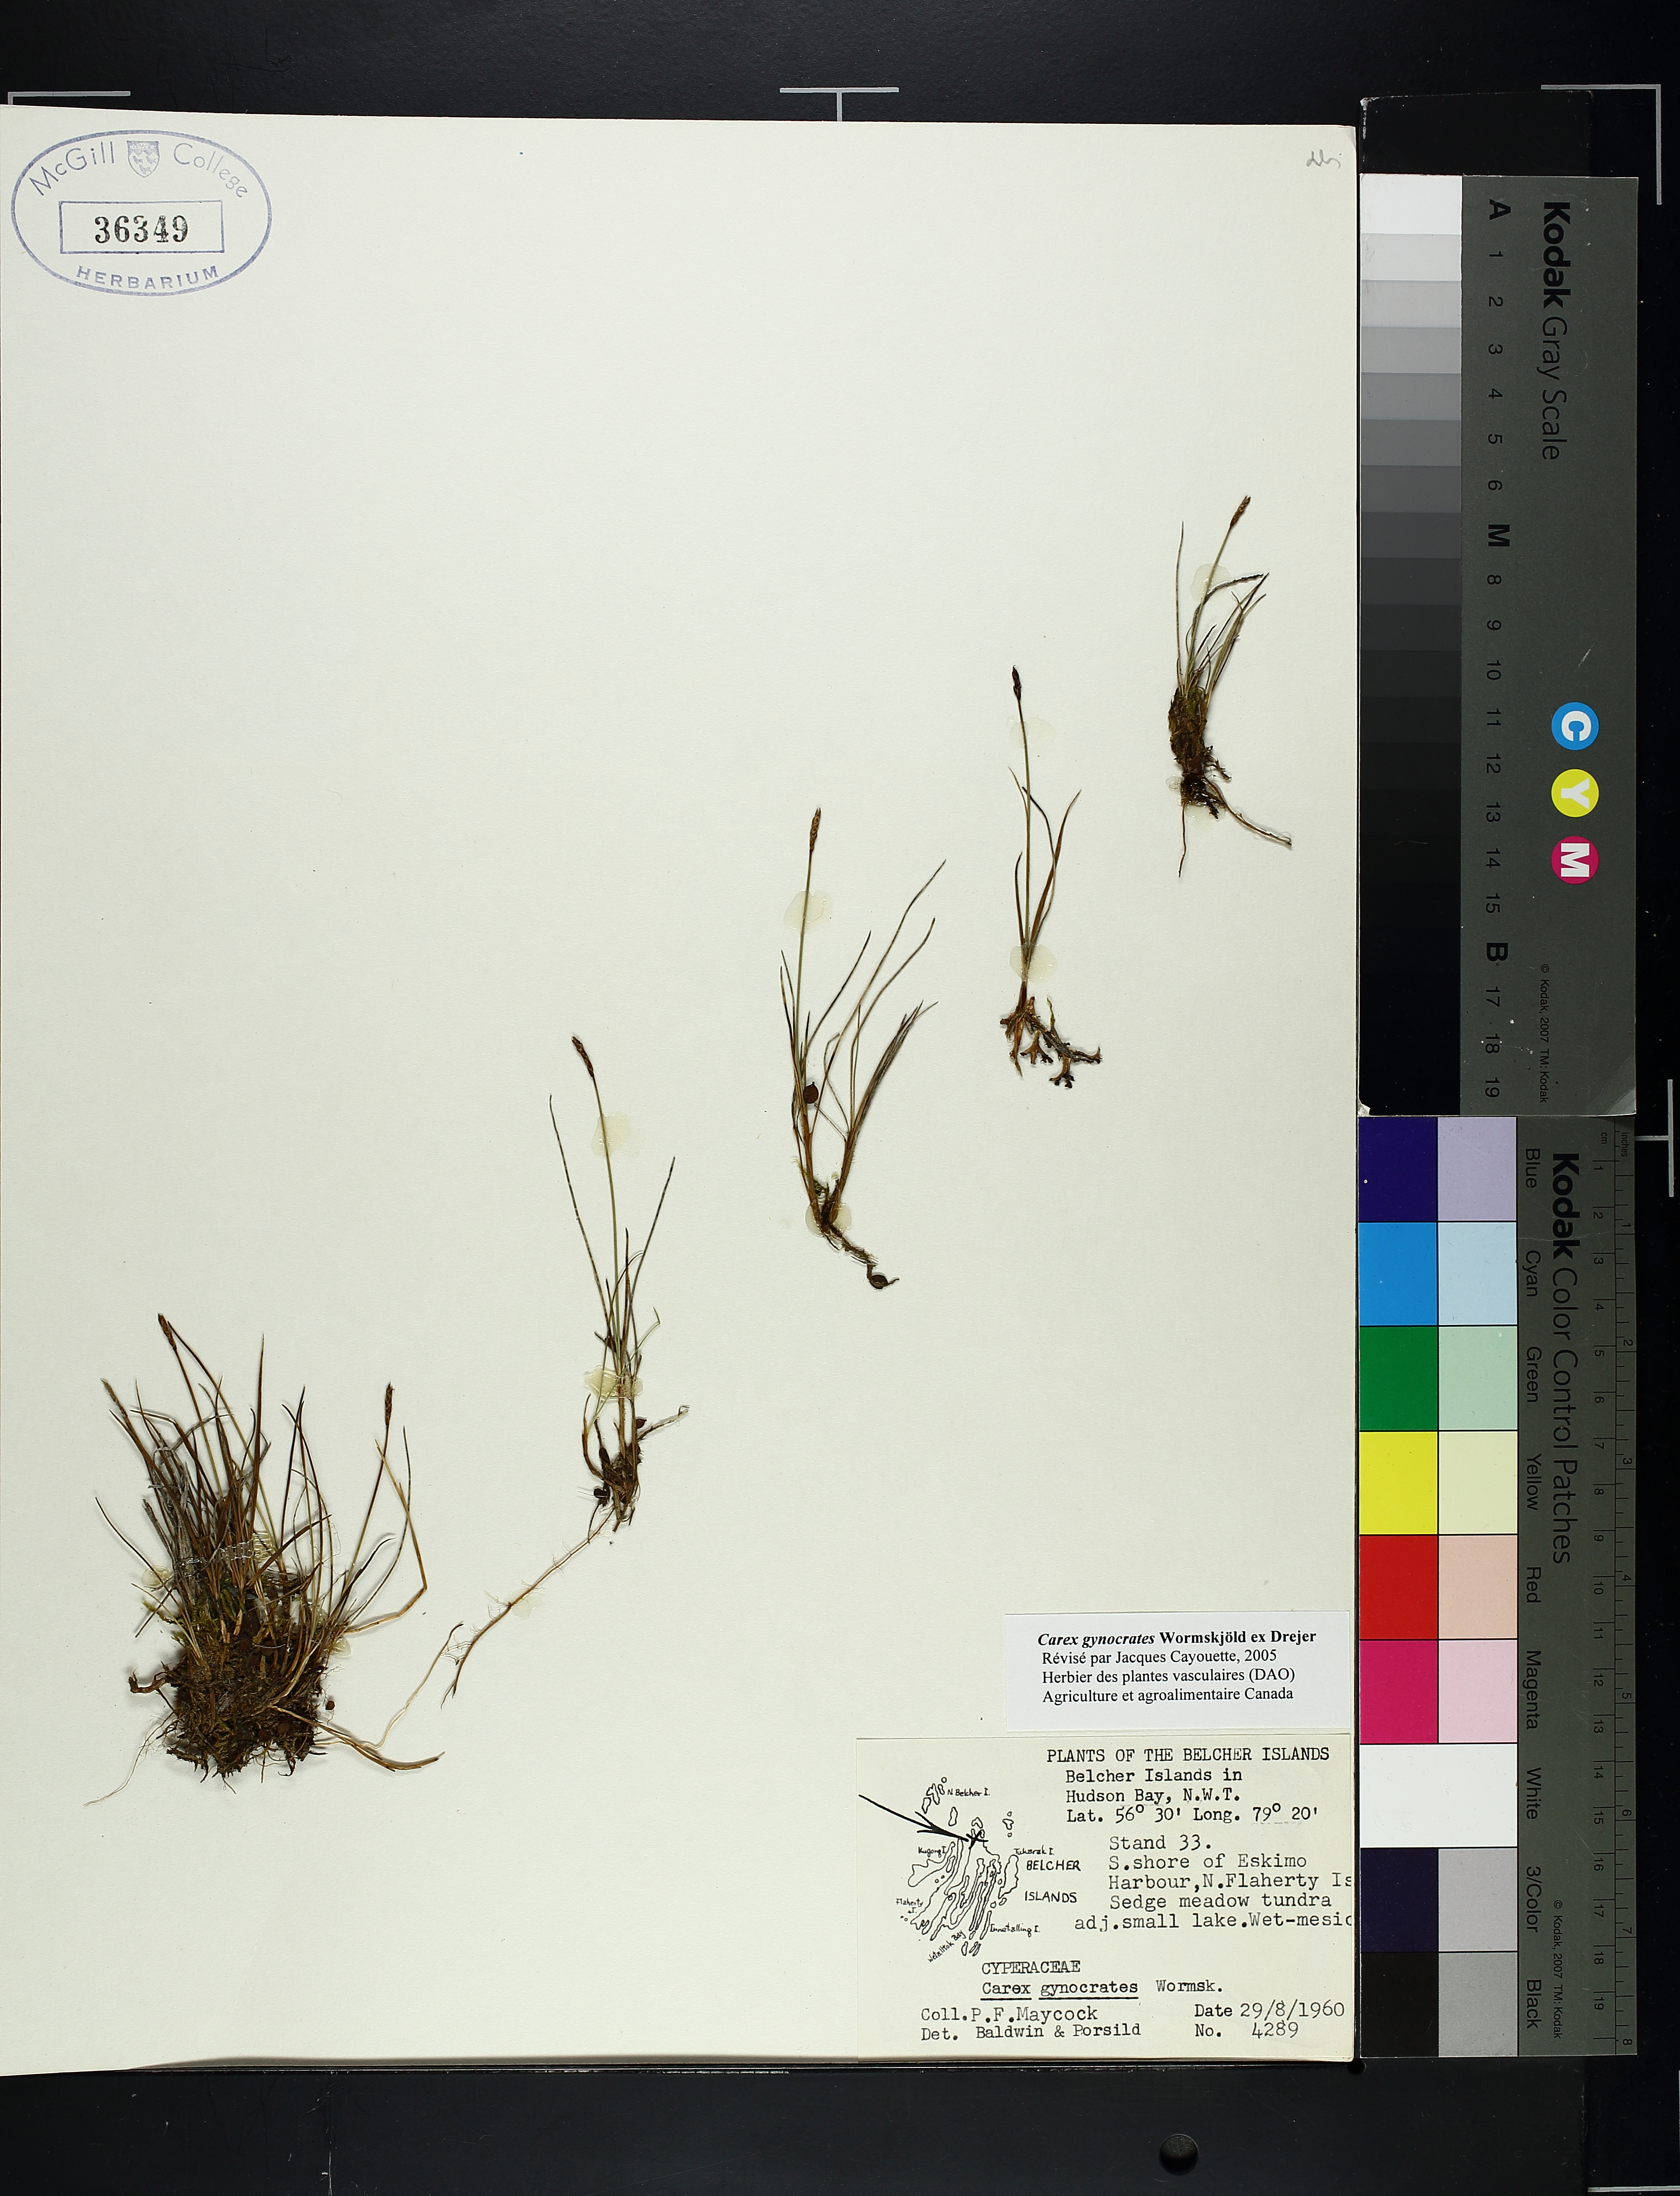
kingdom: Plantae
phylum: Tracheophyta
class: Liliopsida
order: Poales
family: Cyperaceae
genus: Carex
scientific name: Carex gynocrates
